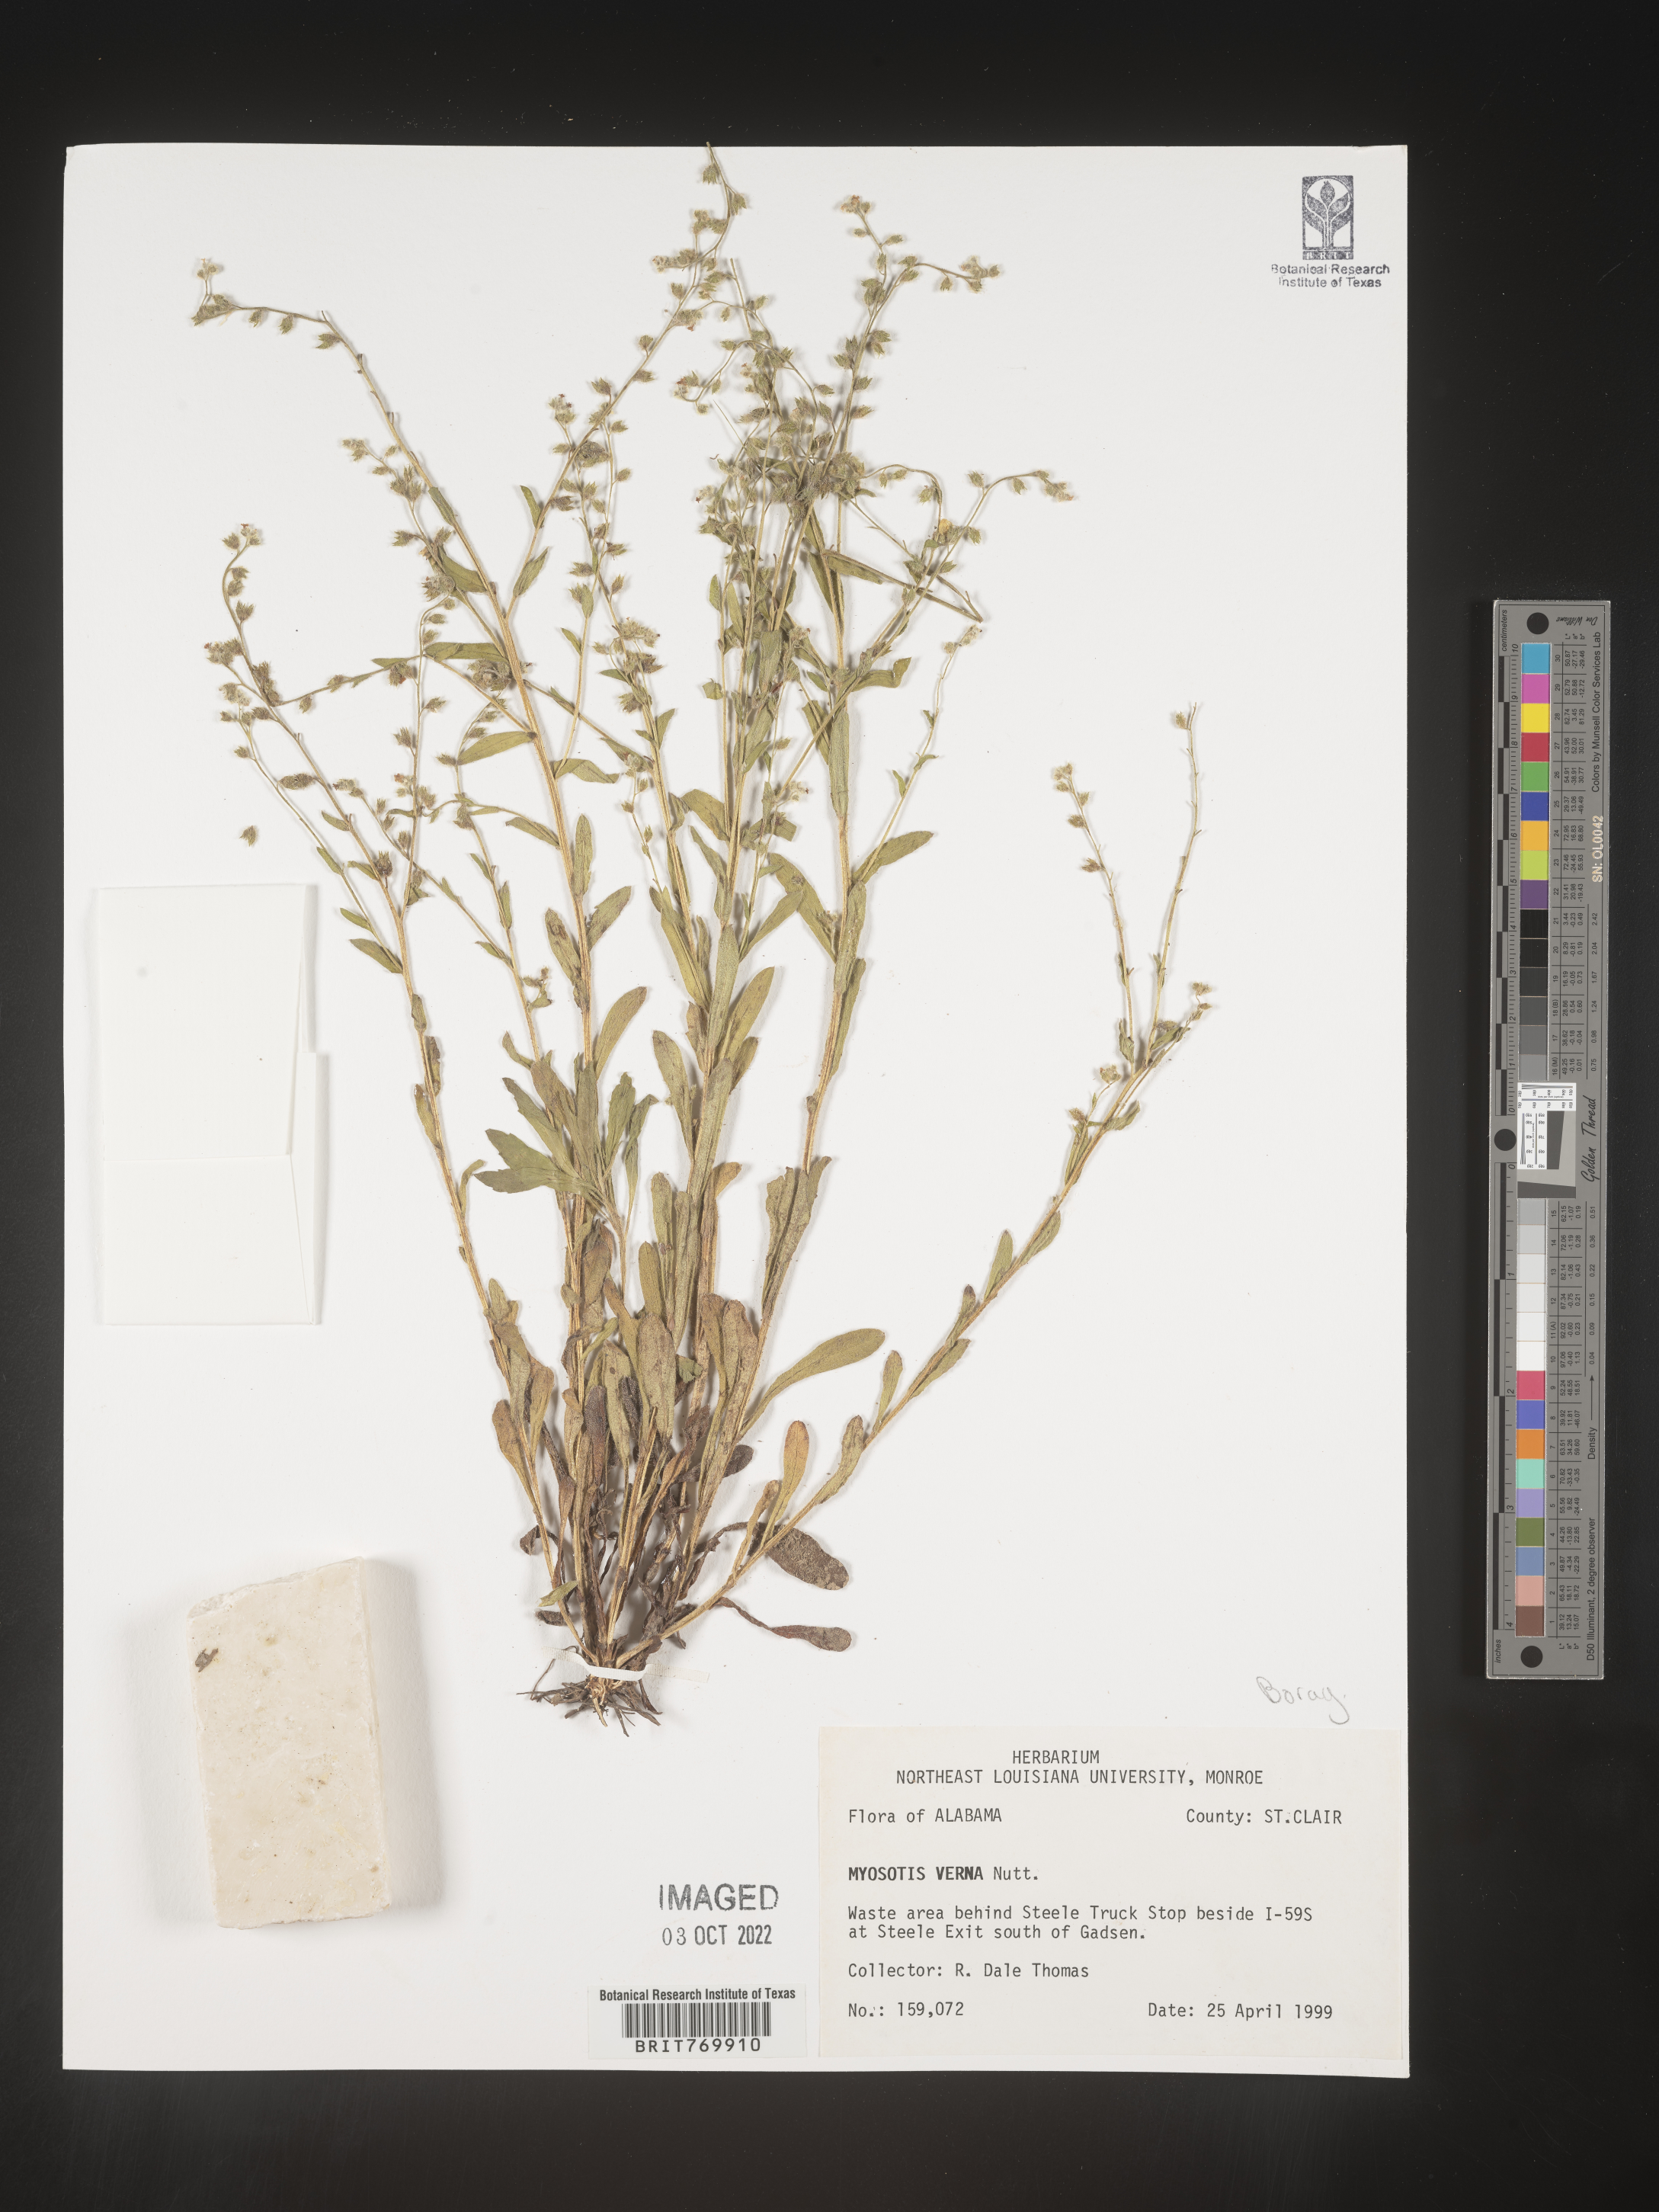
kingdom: Plantae
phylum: Tracheophyta
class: Magnoliopsida
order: Boraginales
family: Boraginaceae
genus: Myosotis
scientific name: Myosotis verna
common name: Early forget-me-not
